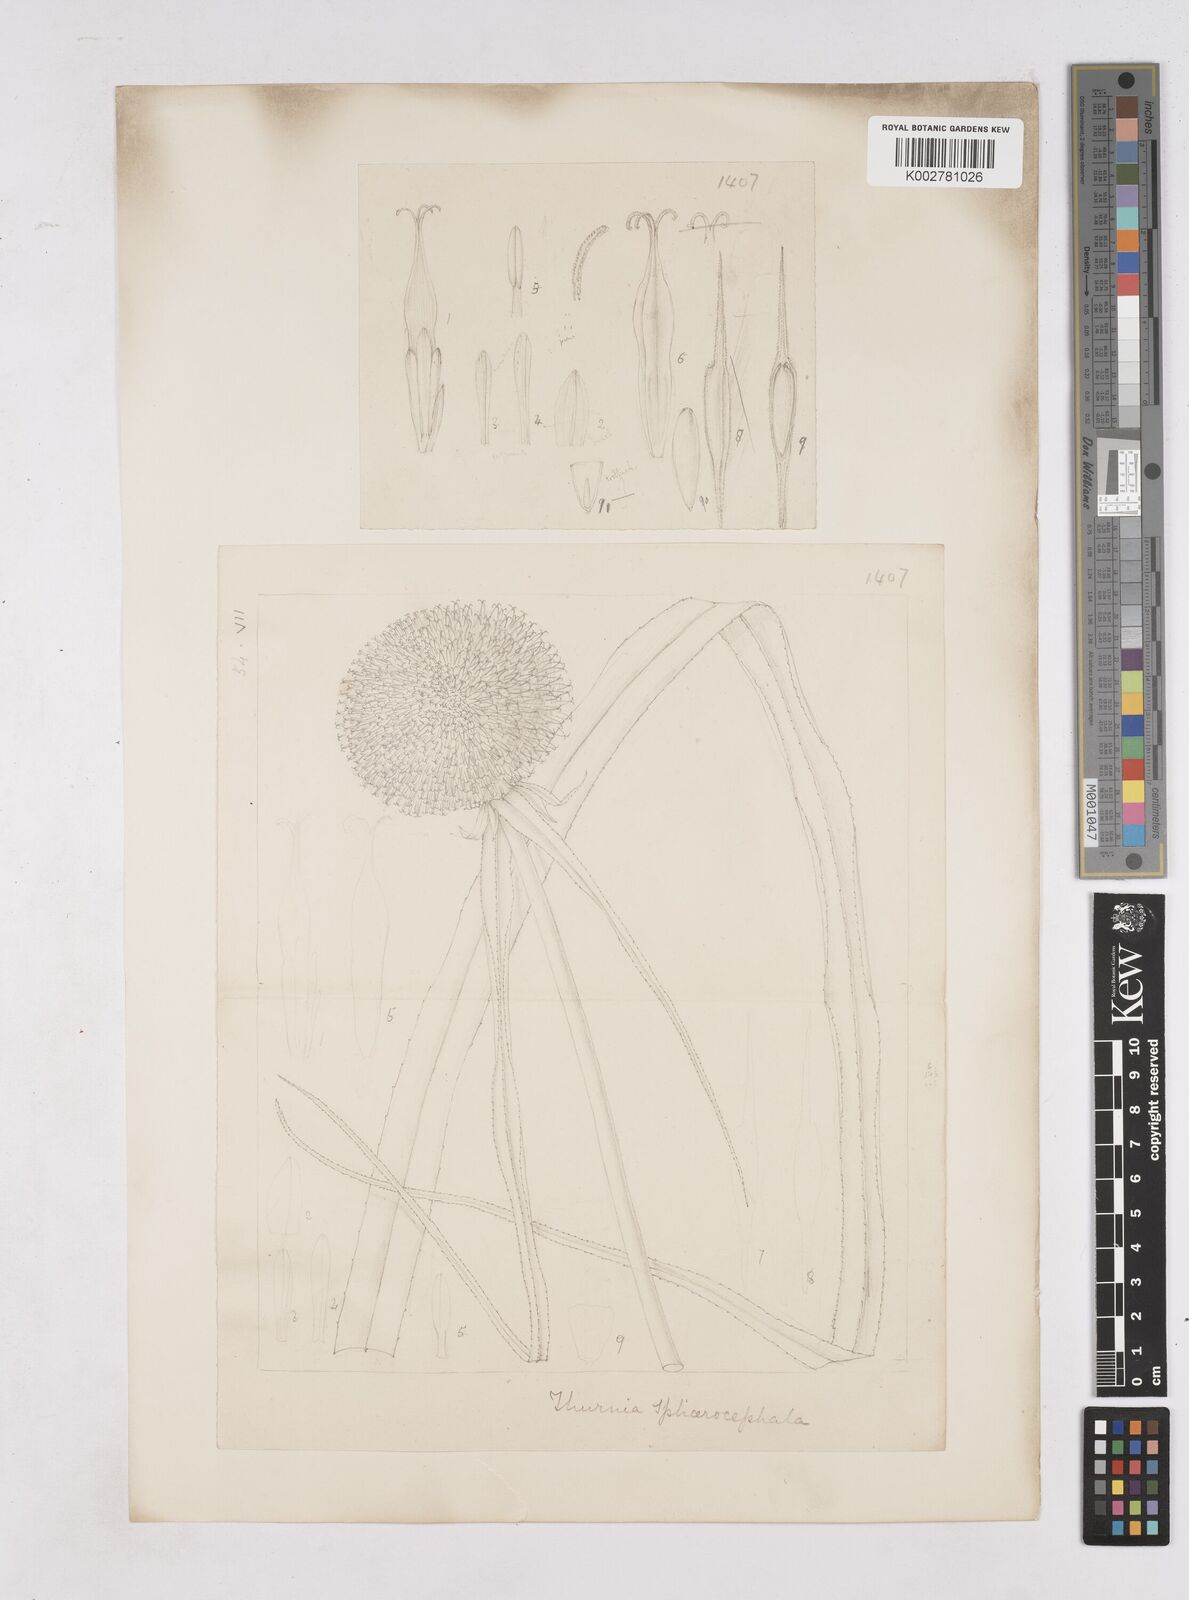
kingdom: Plantae
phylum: Tracheophyta
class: Liliopsida
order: Poales
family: Thurniaceae
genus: Thurnia
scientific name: Thurnia sphaerocephala
